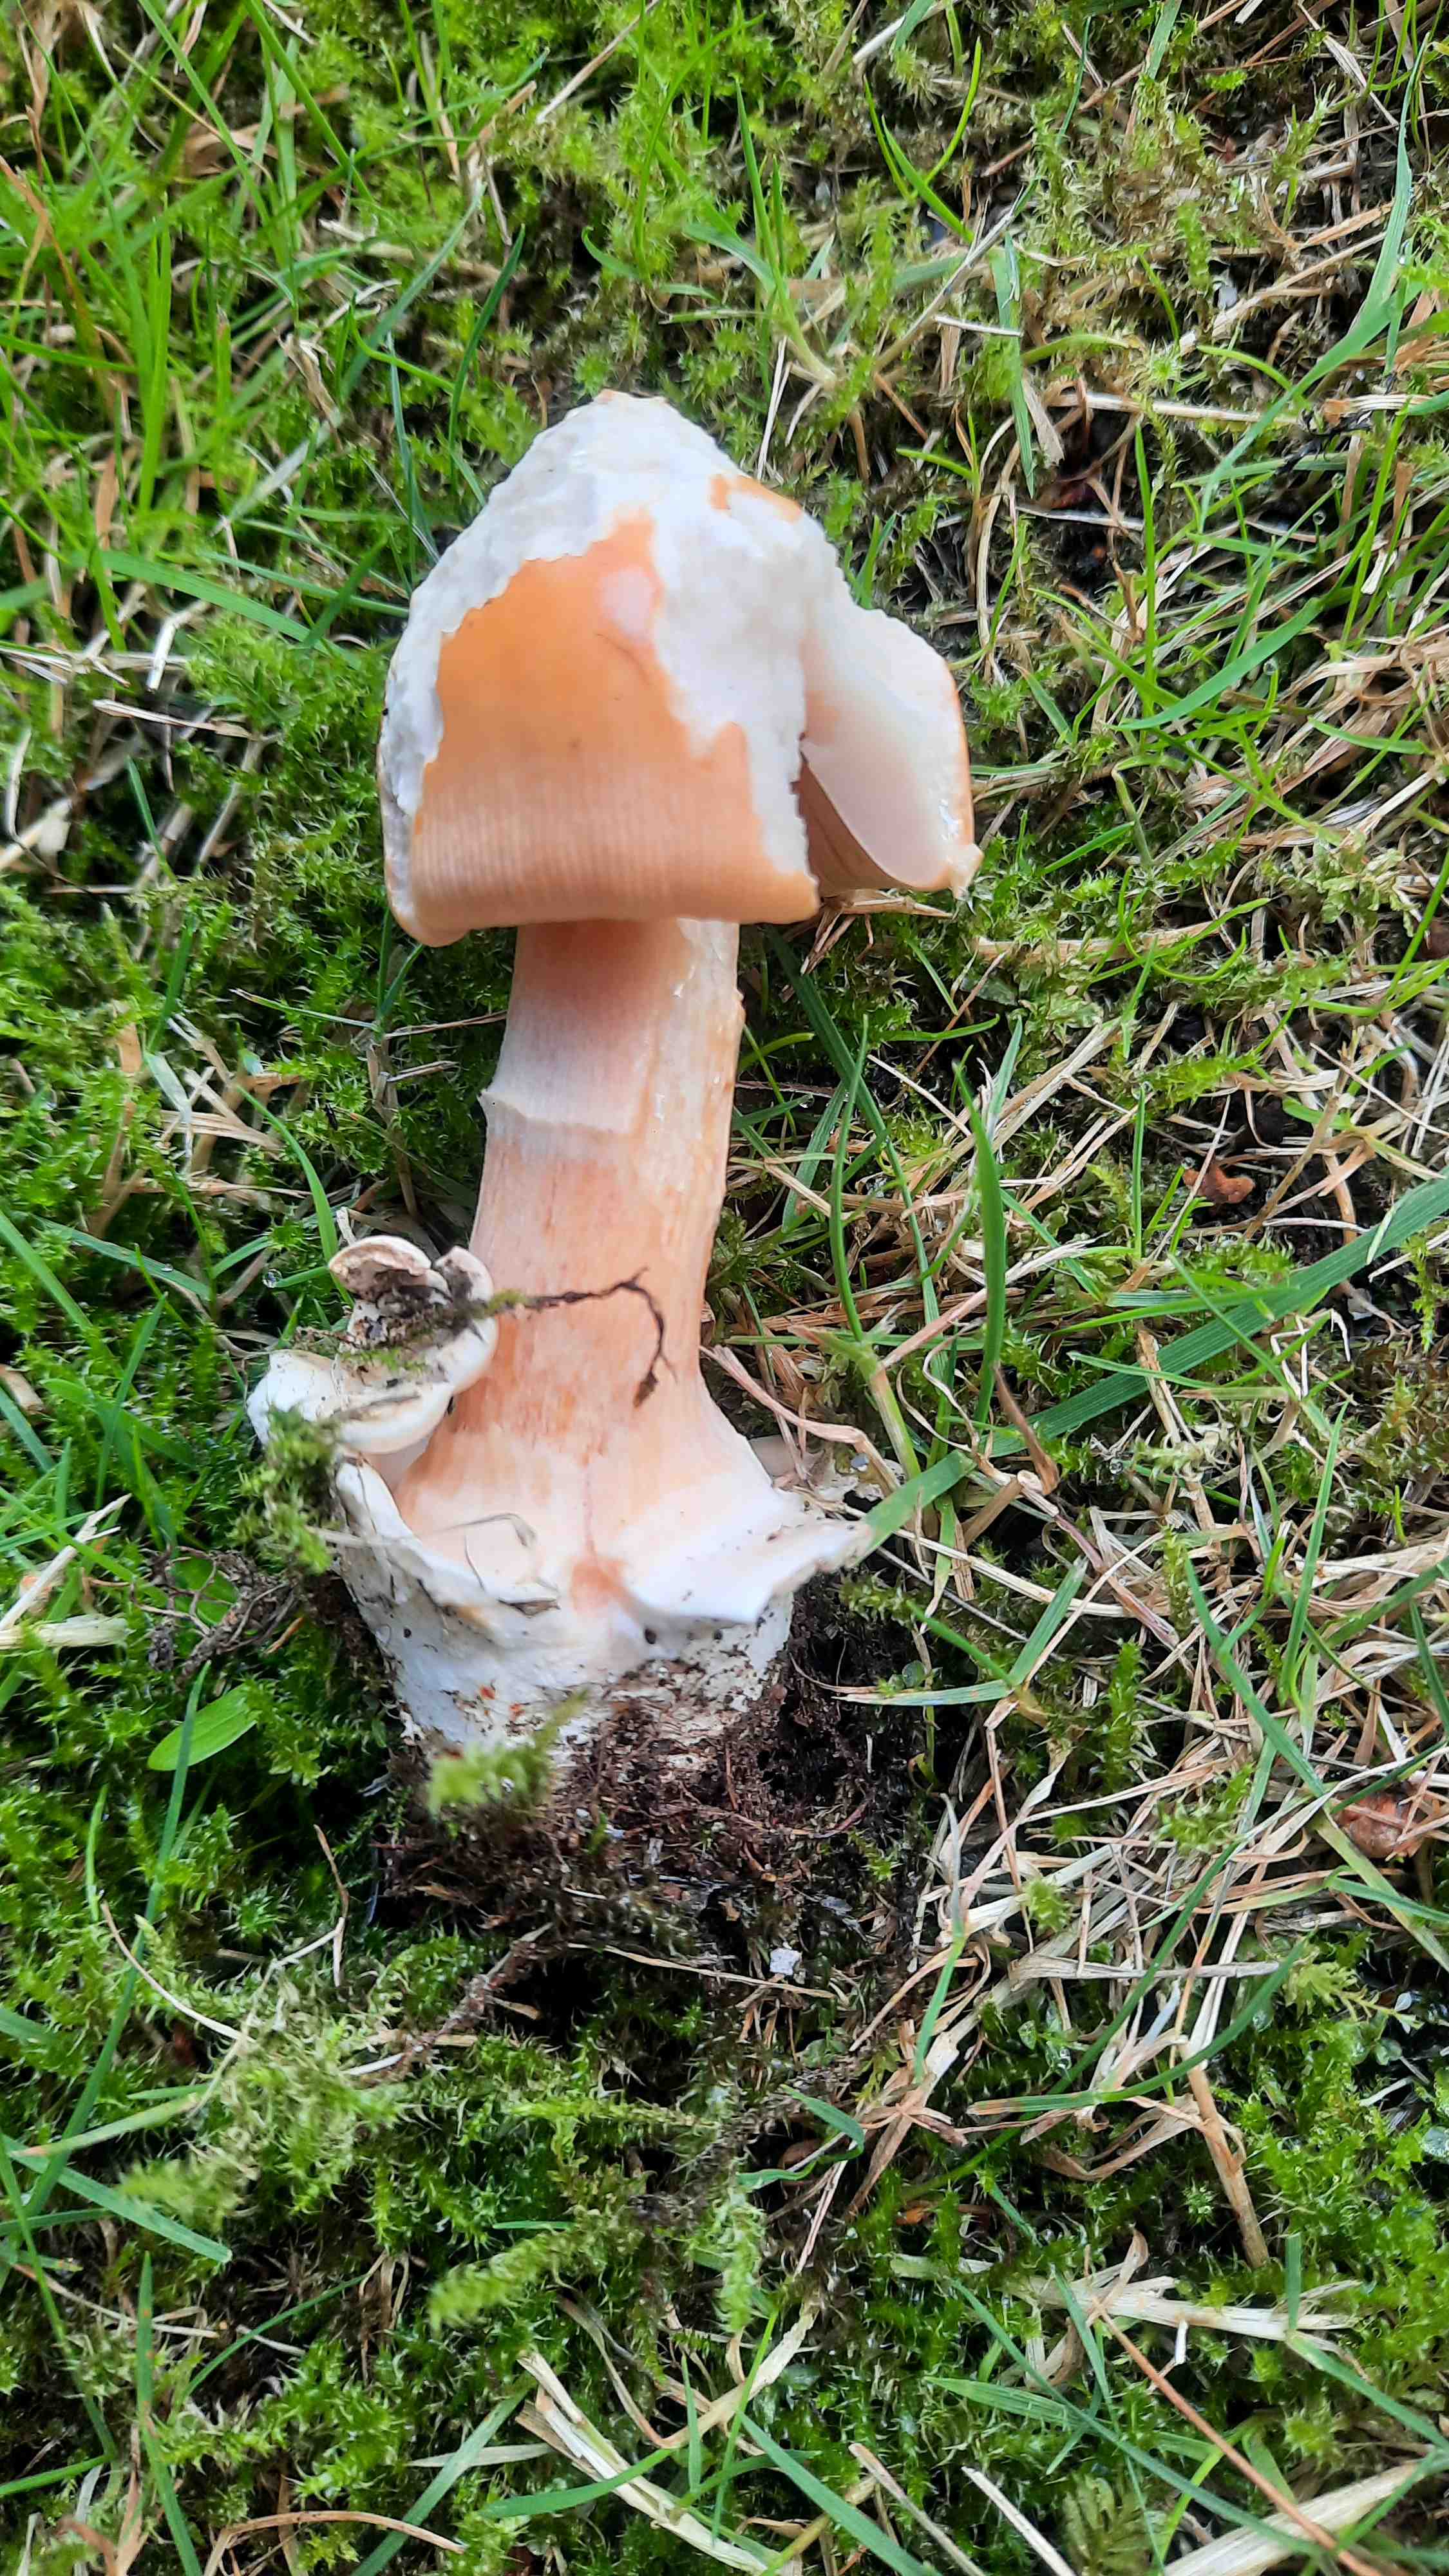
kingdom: Fungi
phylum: Basidiomycota
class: Agaricomycetes
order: Agaricales
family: Amanitaceae
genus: Amanita
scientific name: Amanita crocea
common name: gylden kam-fluesvamp
